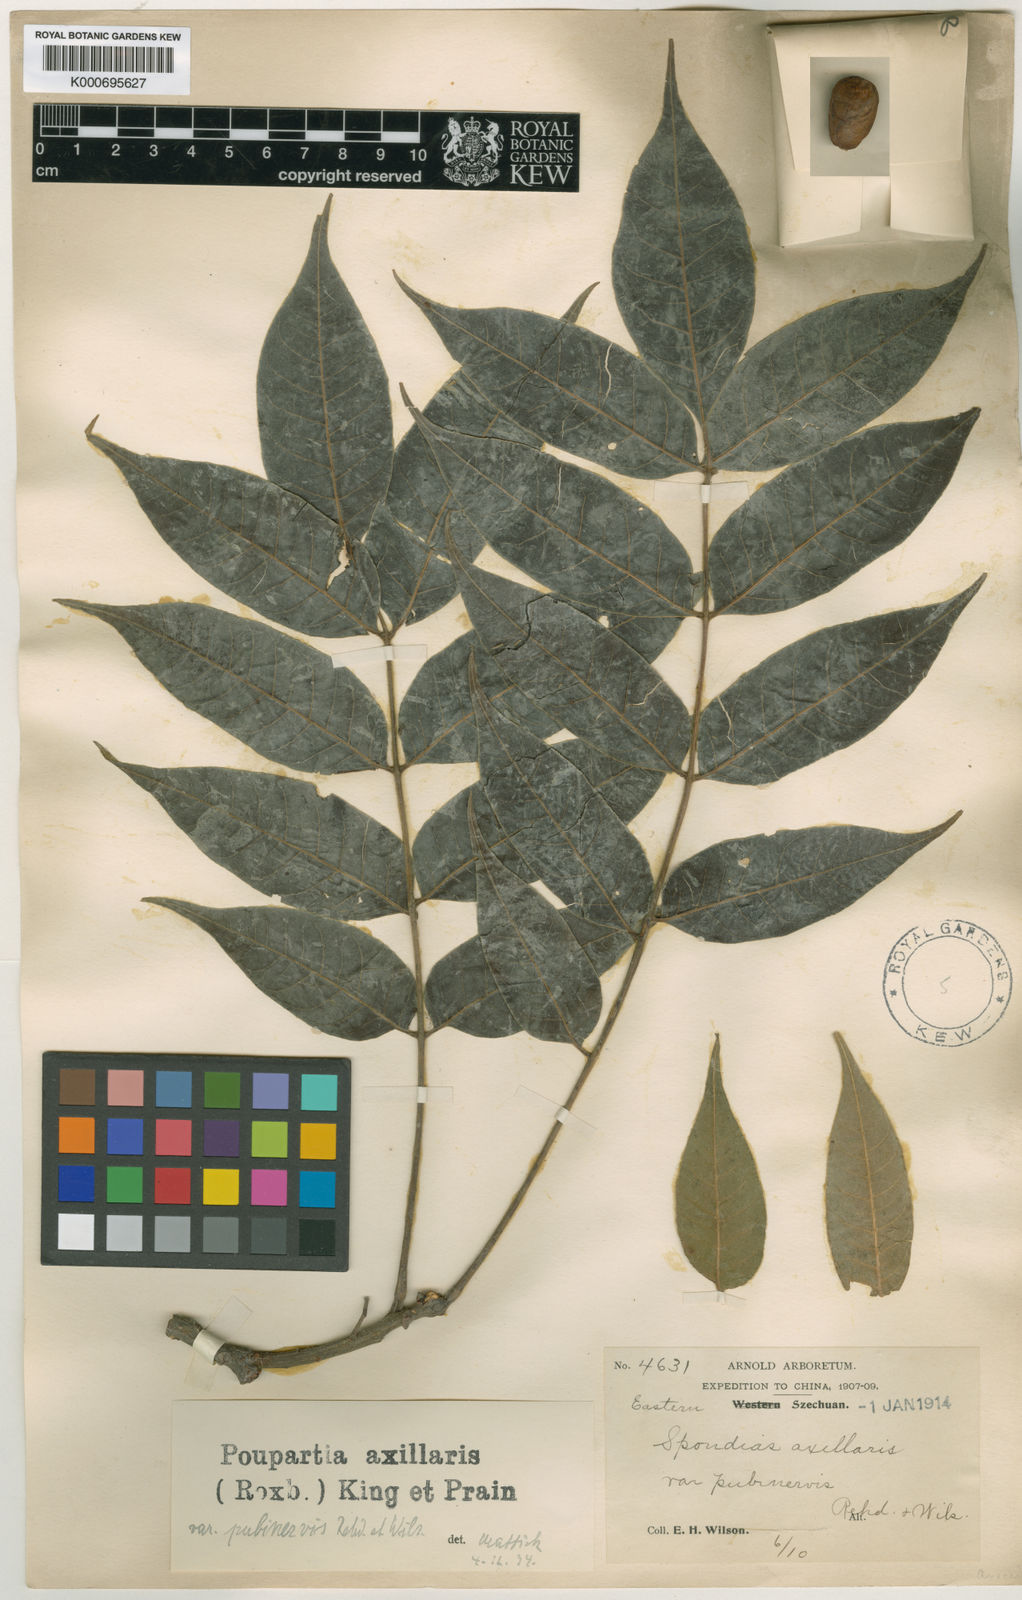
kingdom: Plantae
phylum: Tracheophyta
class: Magnoliopsida
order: Sapindales
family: Anacardiaceae
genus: Choerospondias
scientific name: Choerospondias axillaris
